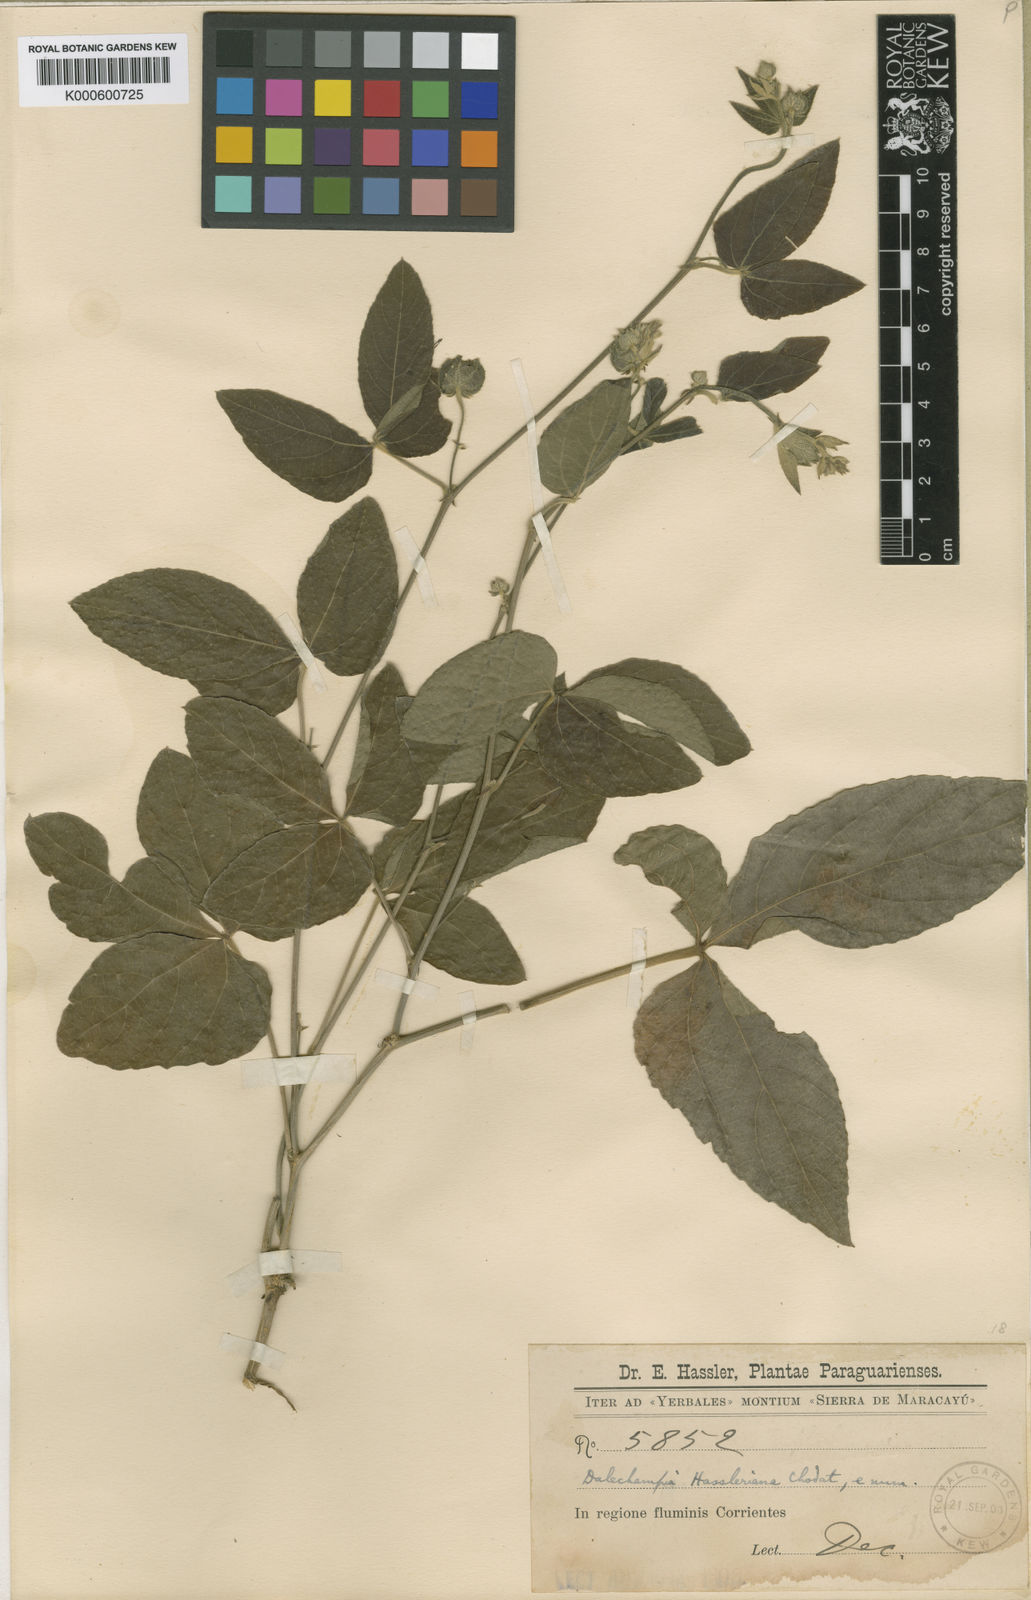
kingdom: Plantae
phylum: Tracheophyta
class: Magnoliopsida
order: Malpighiales
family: Euphorbiaceae
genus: Dalechampia
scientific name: Dalechampia hassleriana
